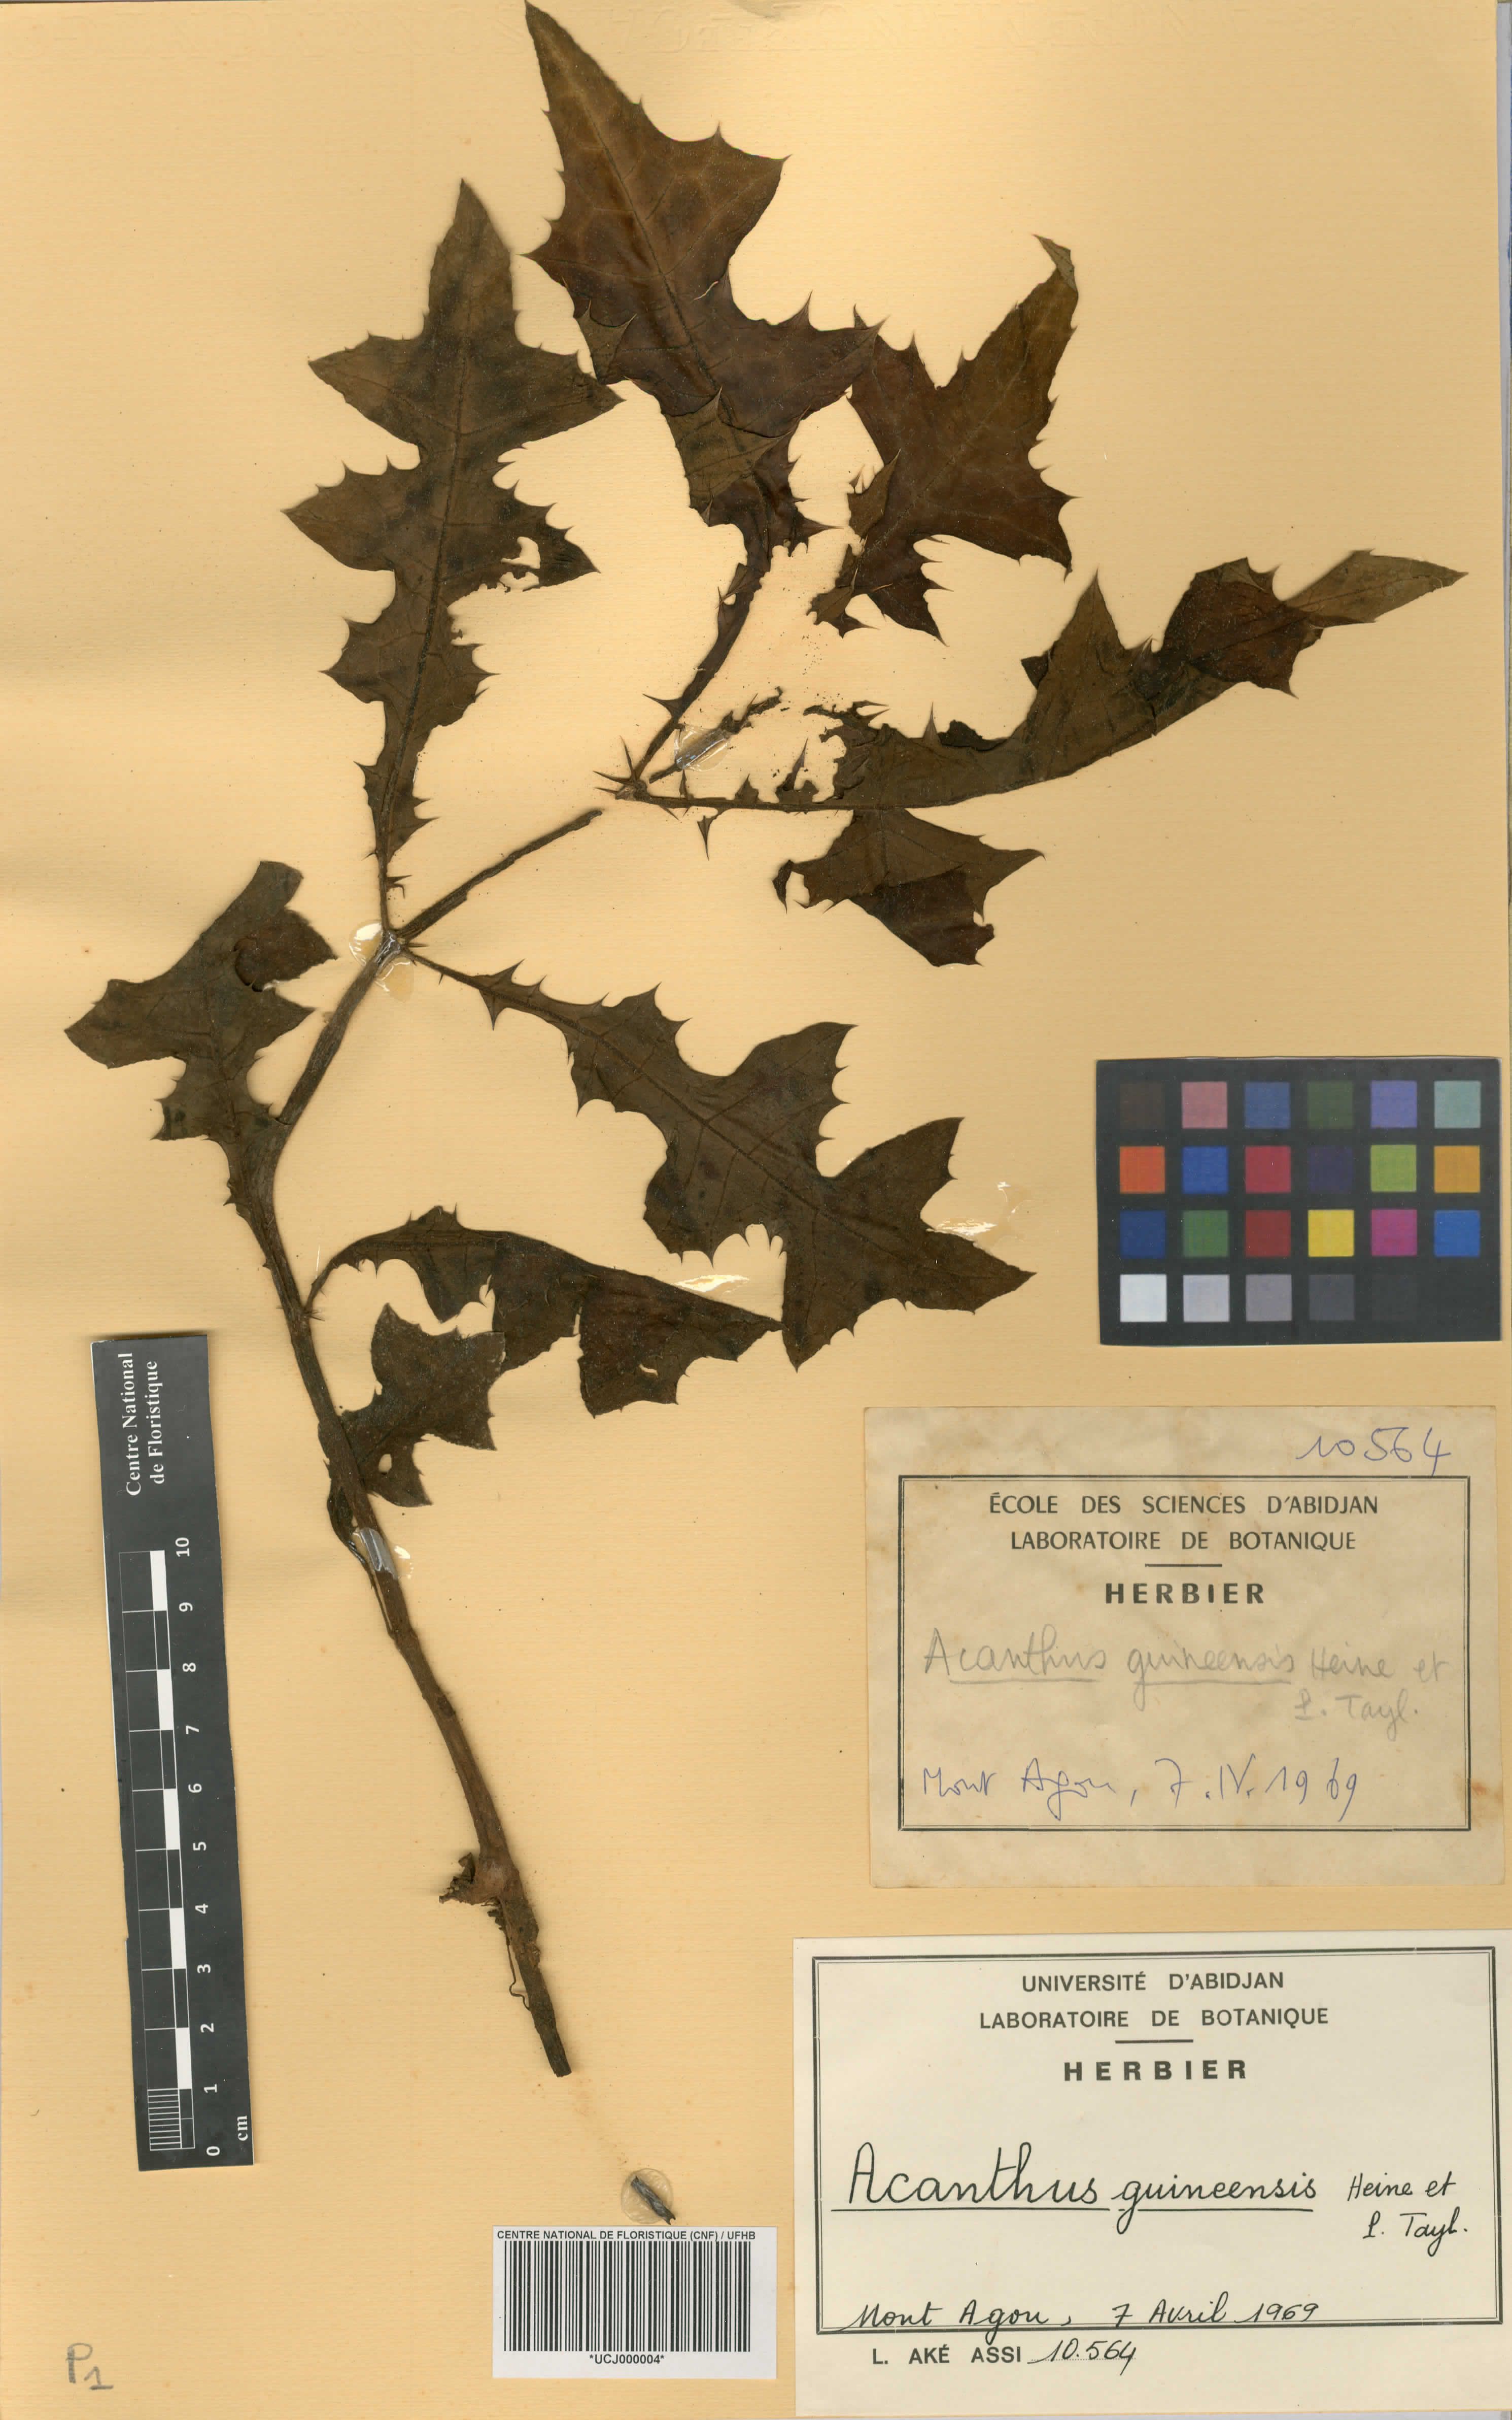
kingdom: Plantae
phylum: Tracheophyta
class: Magnoliopsida
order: Lamiales
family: Acanthaceae
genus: Acanthus
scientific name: Acanthus guineensis
